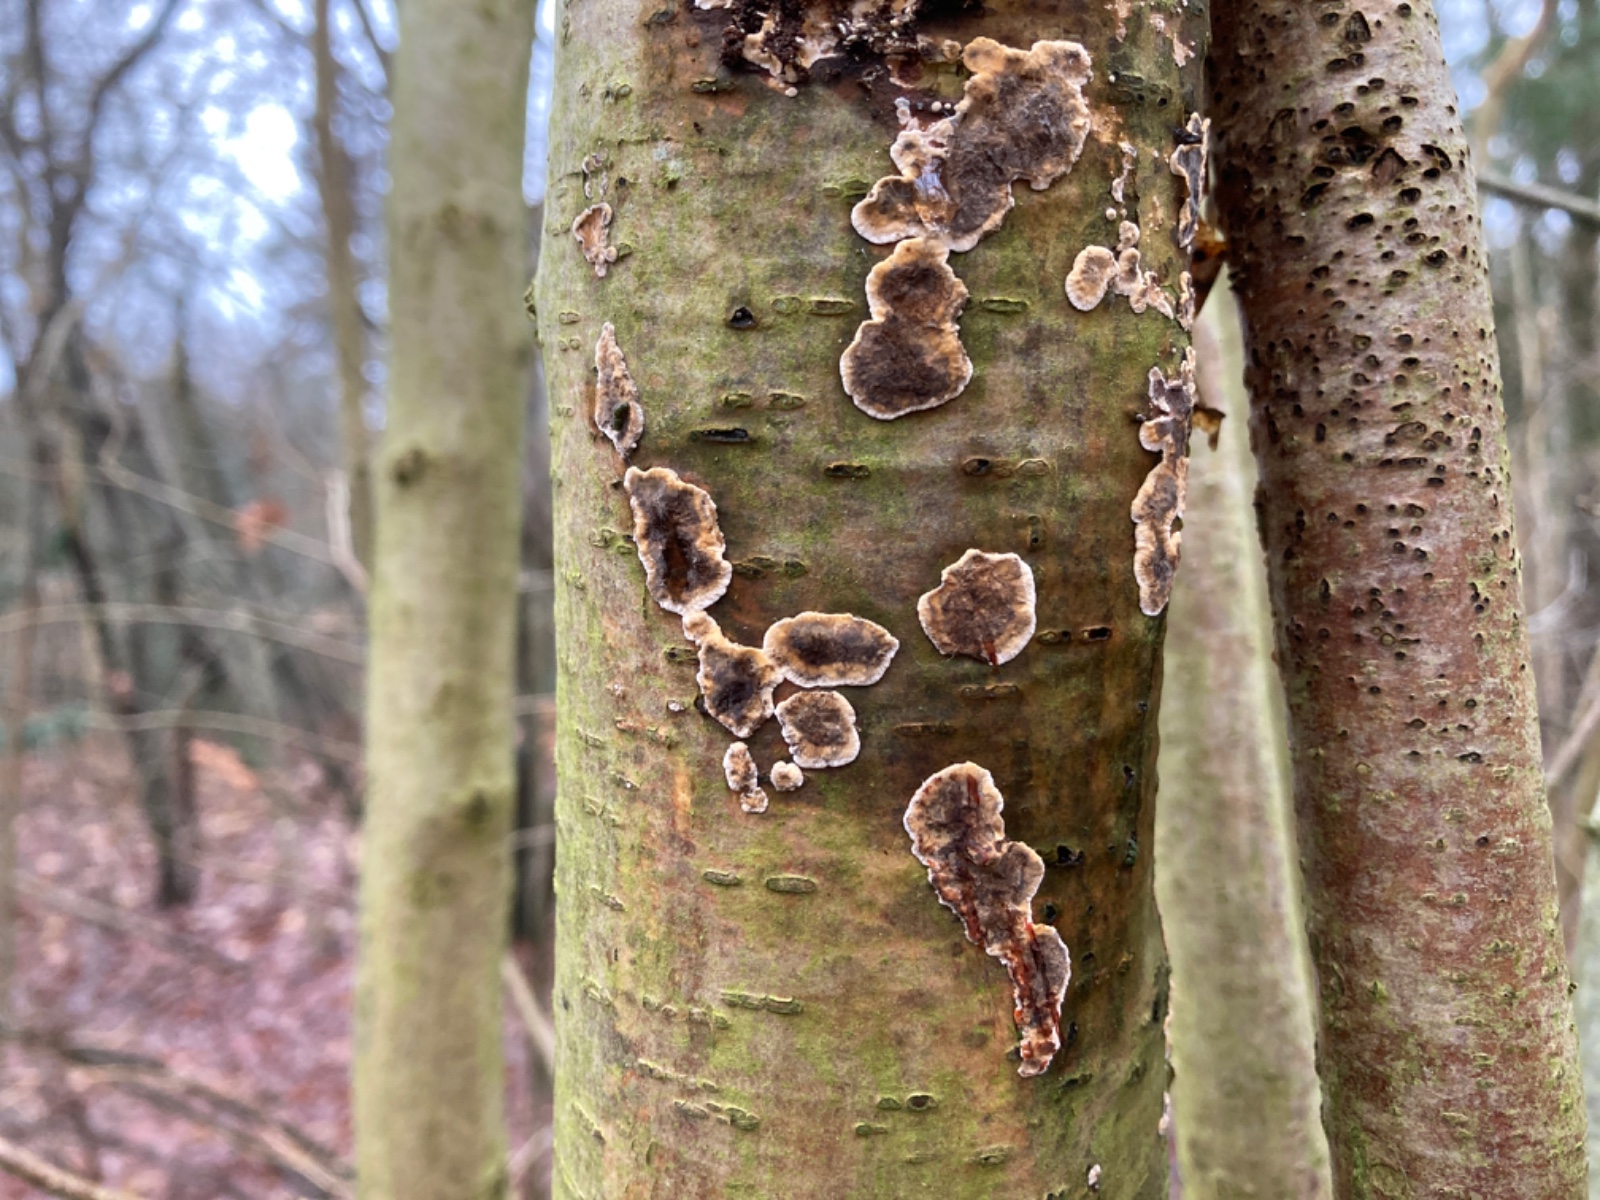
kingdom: Fungi
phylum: Basidiomycota
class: Agaricomycetes
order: Russulales
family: Stereaceae
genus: Stereum
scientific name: Stereum rugosum
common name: rynket lædersvamp
